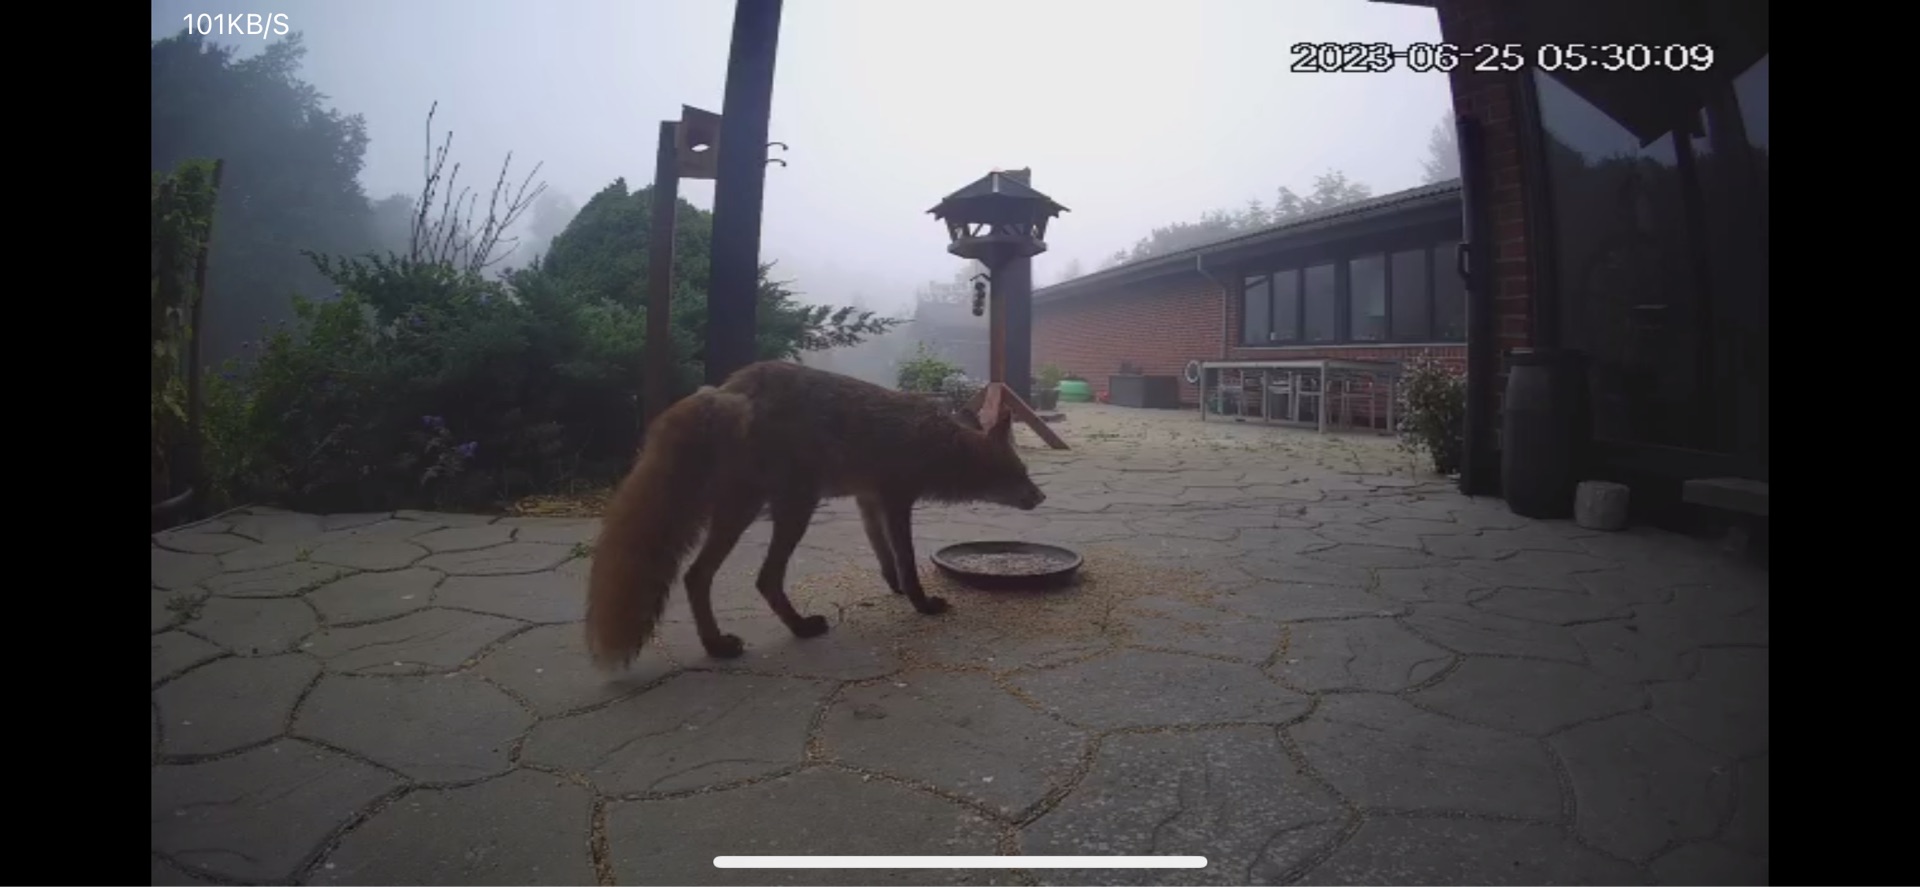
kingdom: Animalia
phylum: Chordata
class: Mammalia
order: Carnivora
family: Canidae
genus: Vulpes
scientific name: Vulpes vulpes
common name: Ræv
